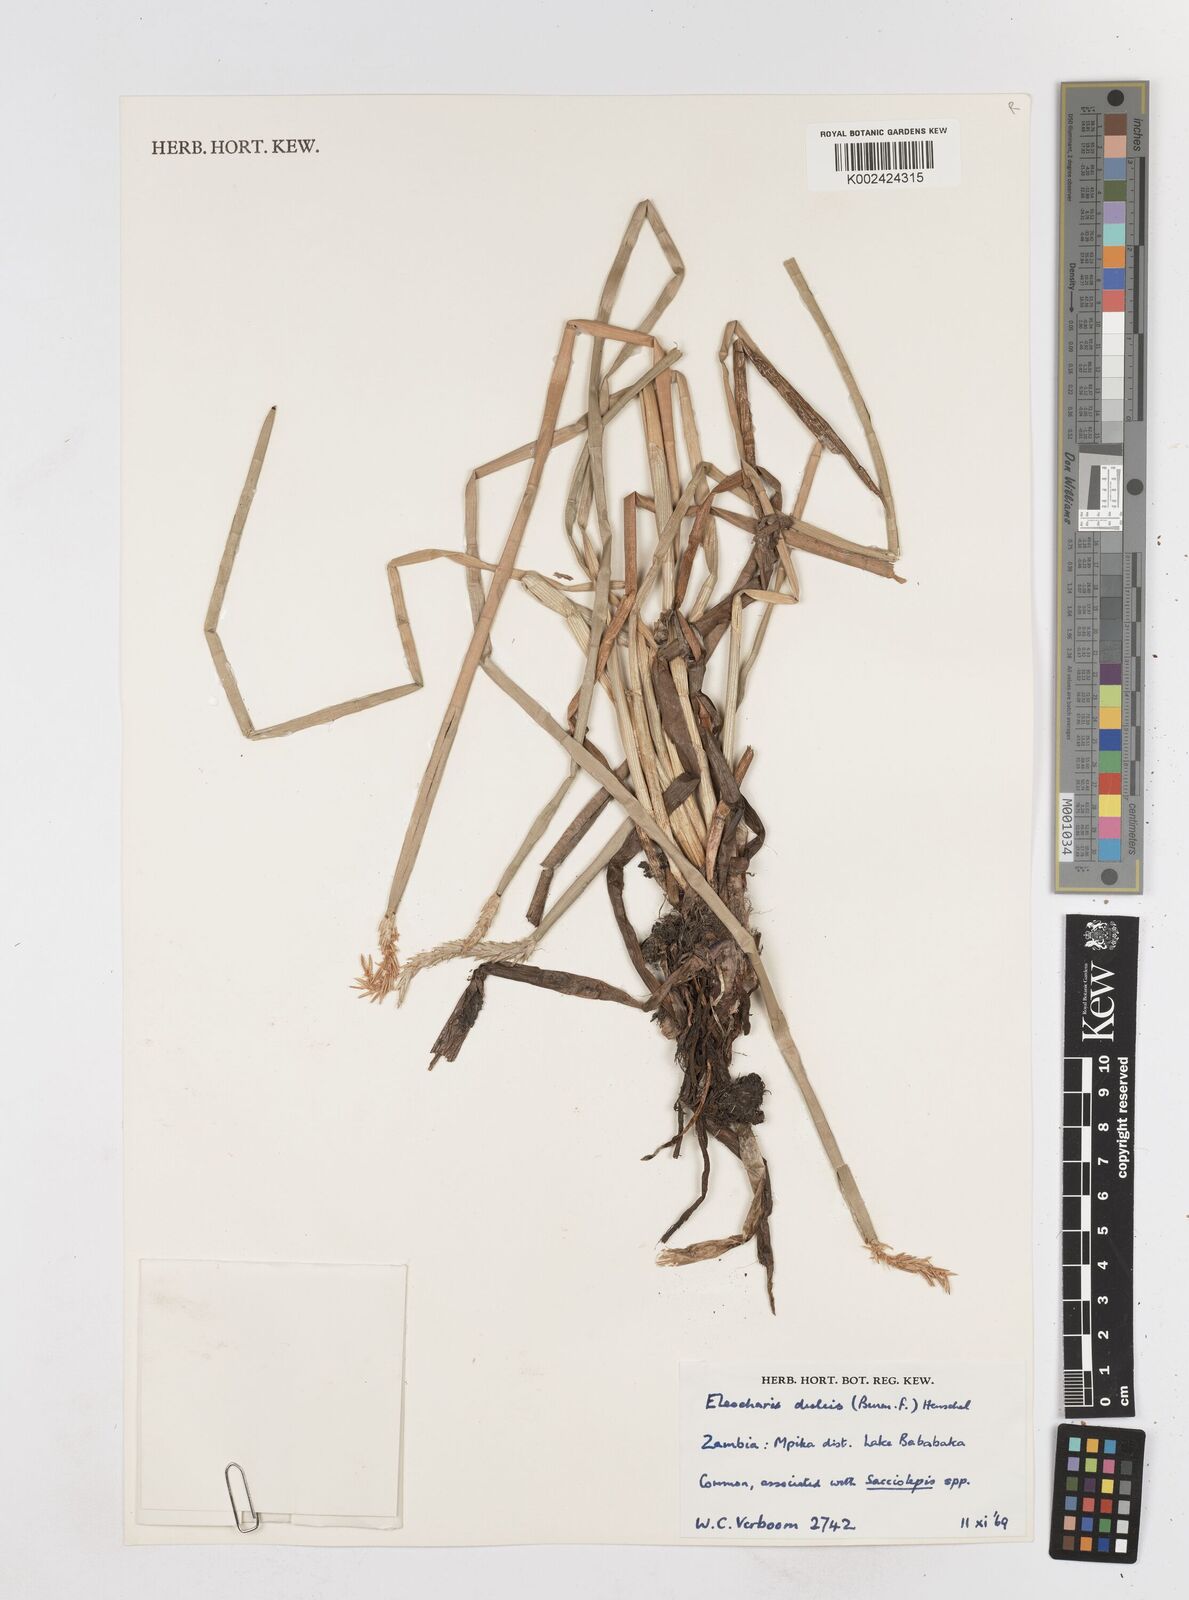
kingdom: Plantae
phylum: Tracheophyta
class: Liliopsida
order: Poales
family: Cyperaceae
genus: Eleocharis
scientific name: Eleocharis dulcis
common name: Chinese water chestnut
